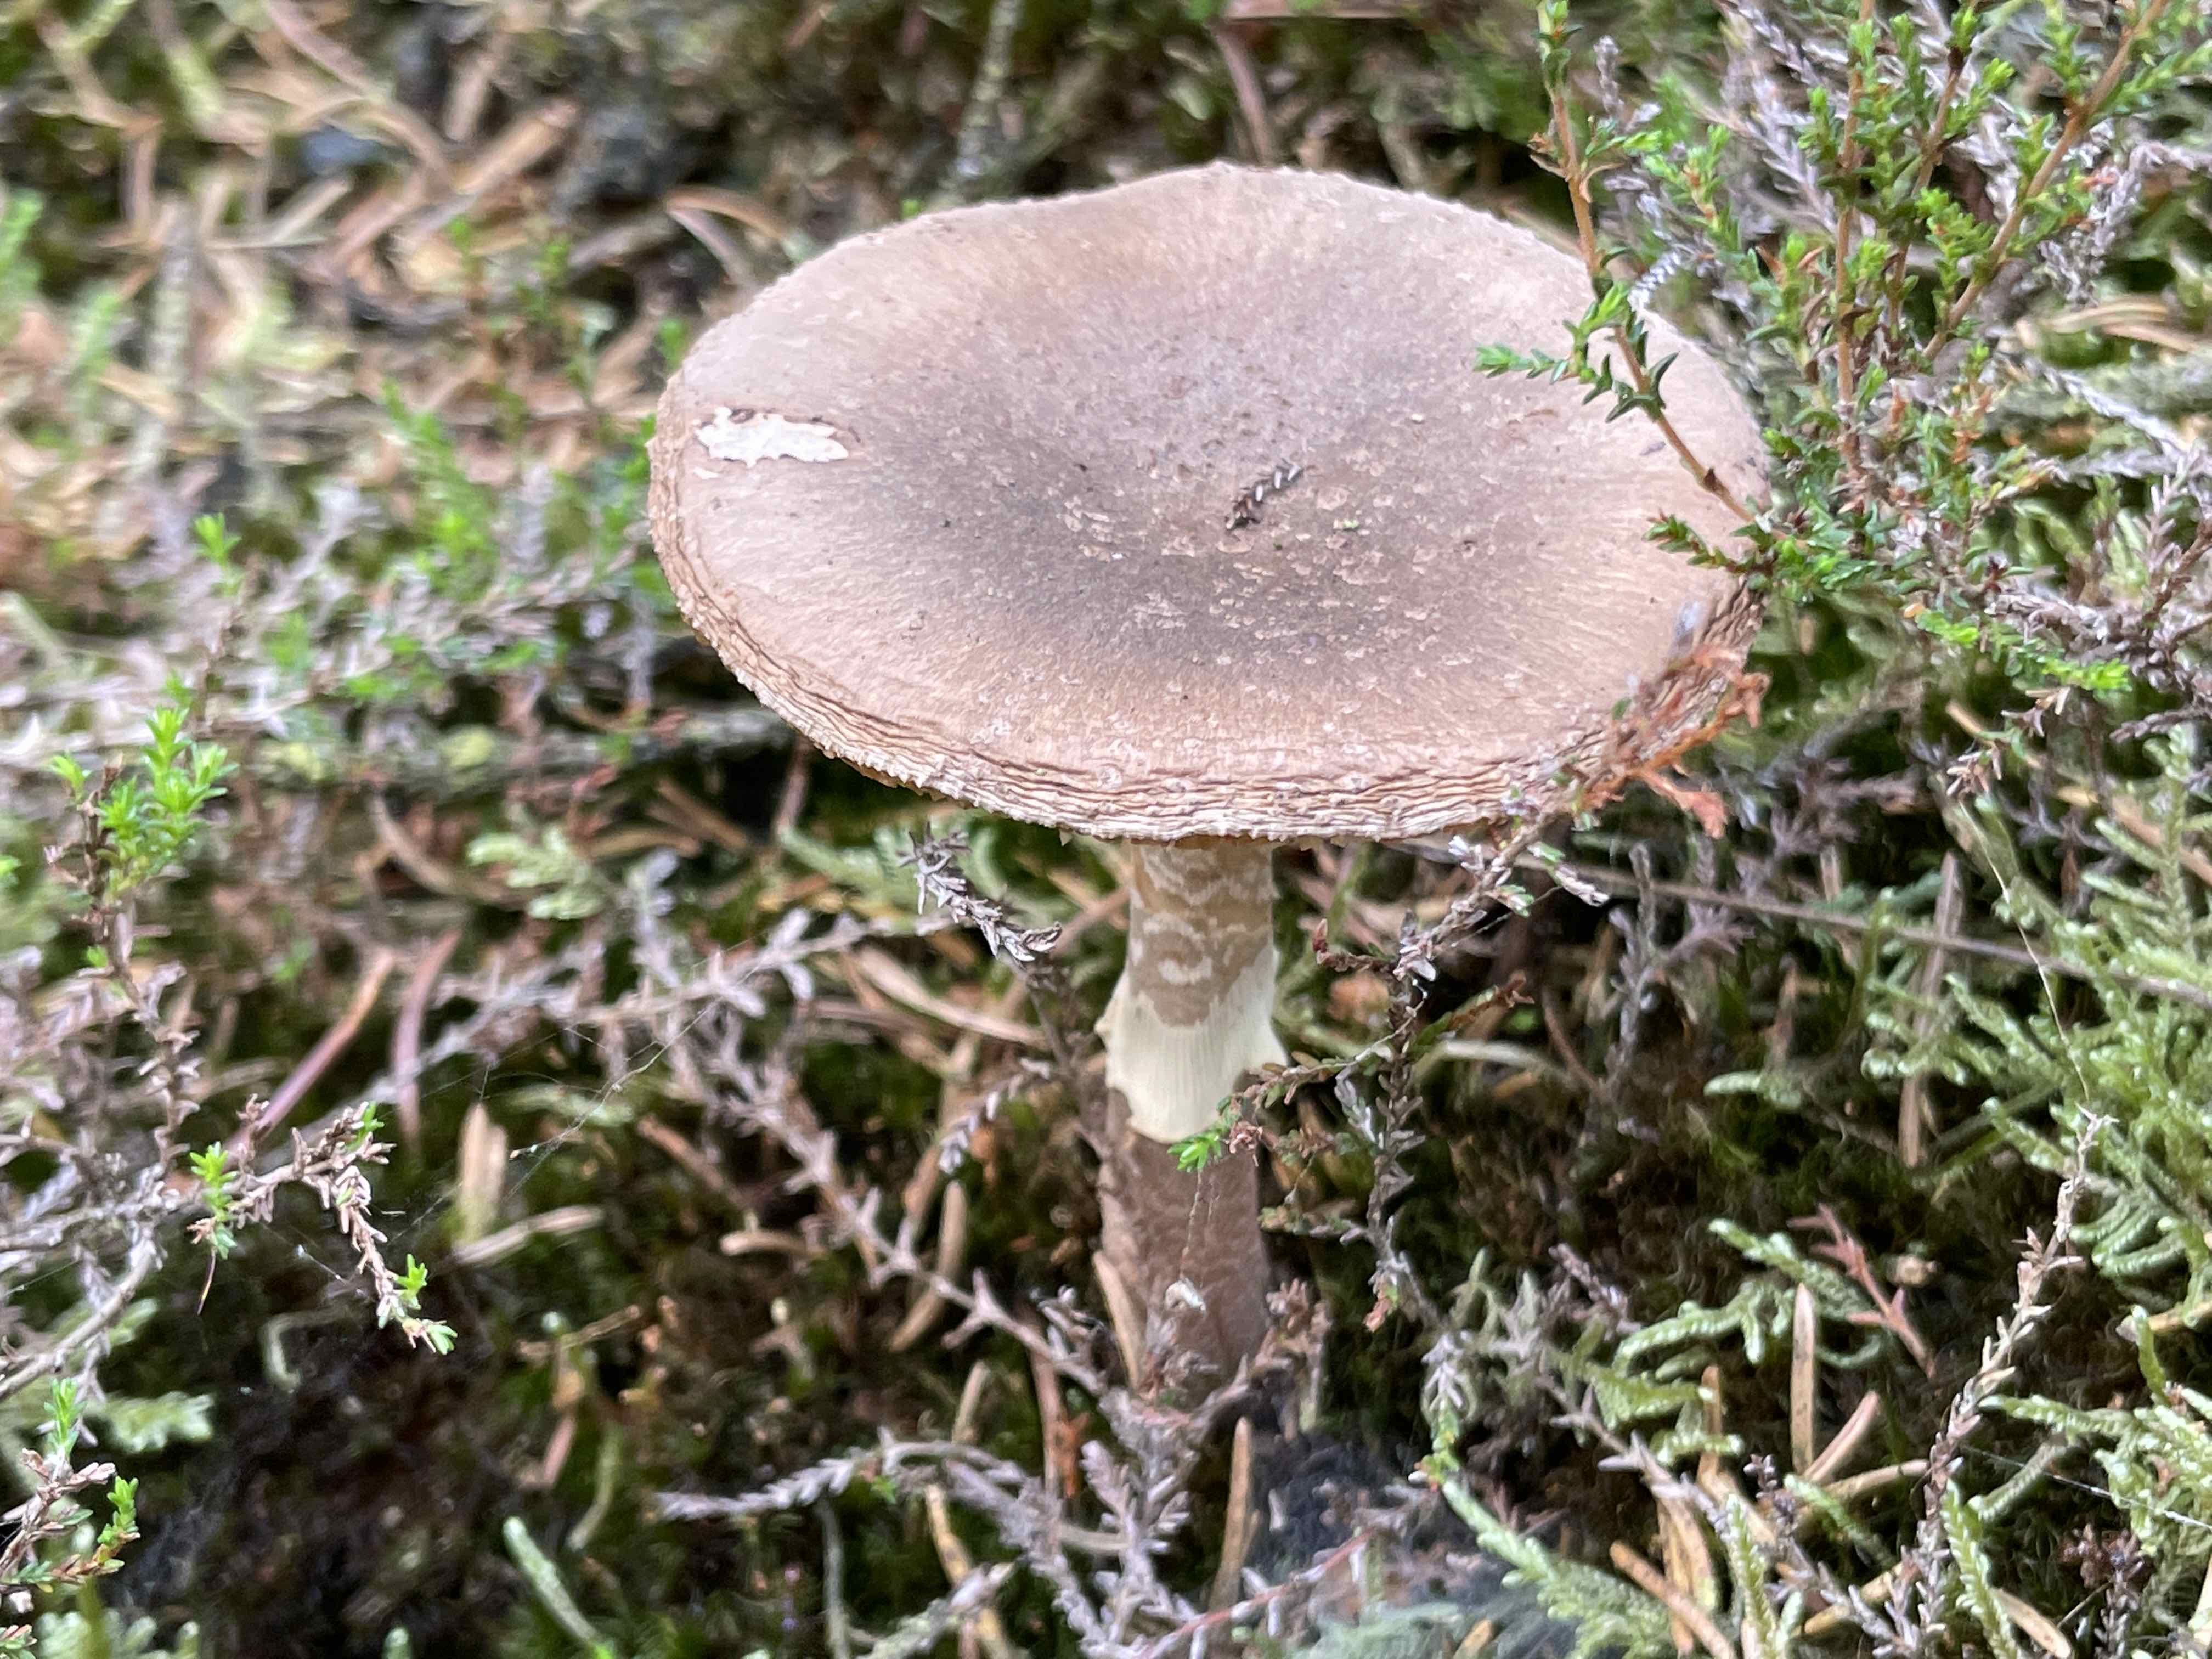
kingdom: Fungi
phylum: Basidiomycota
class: Agaricomycetes
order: Agaricales
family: Amanitaceae
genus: Amanita
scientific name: Amanita rubescens
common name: rødmende fluesvamp
